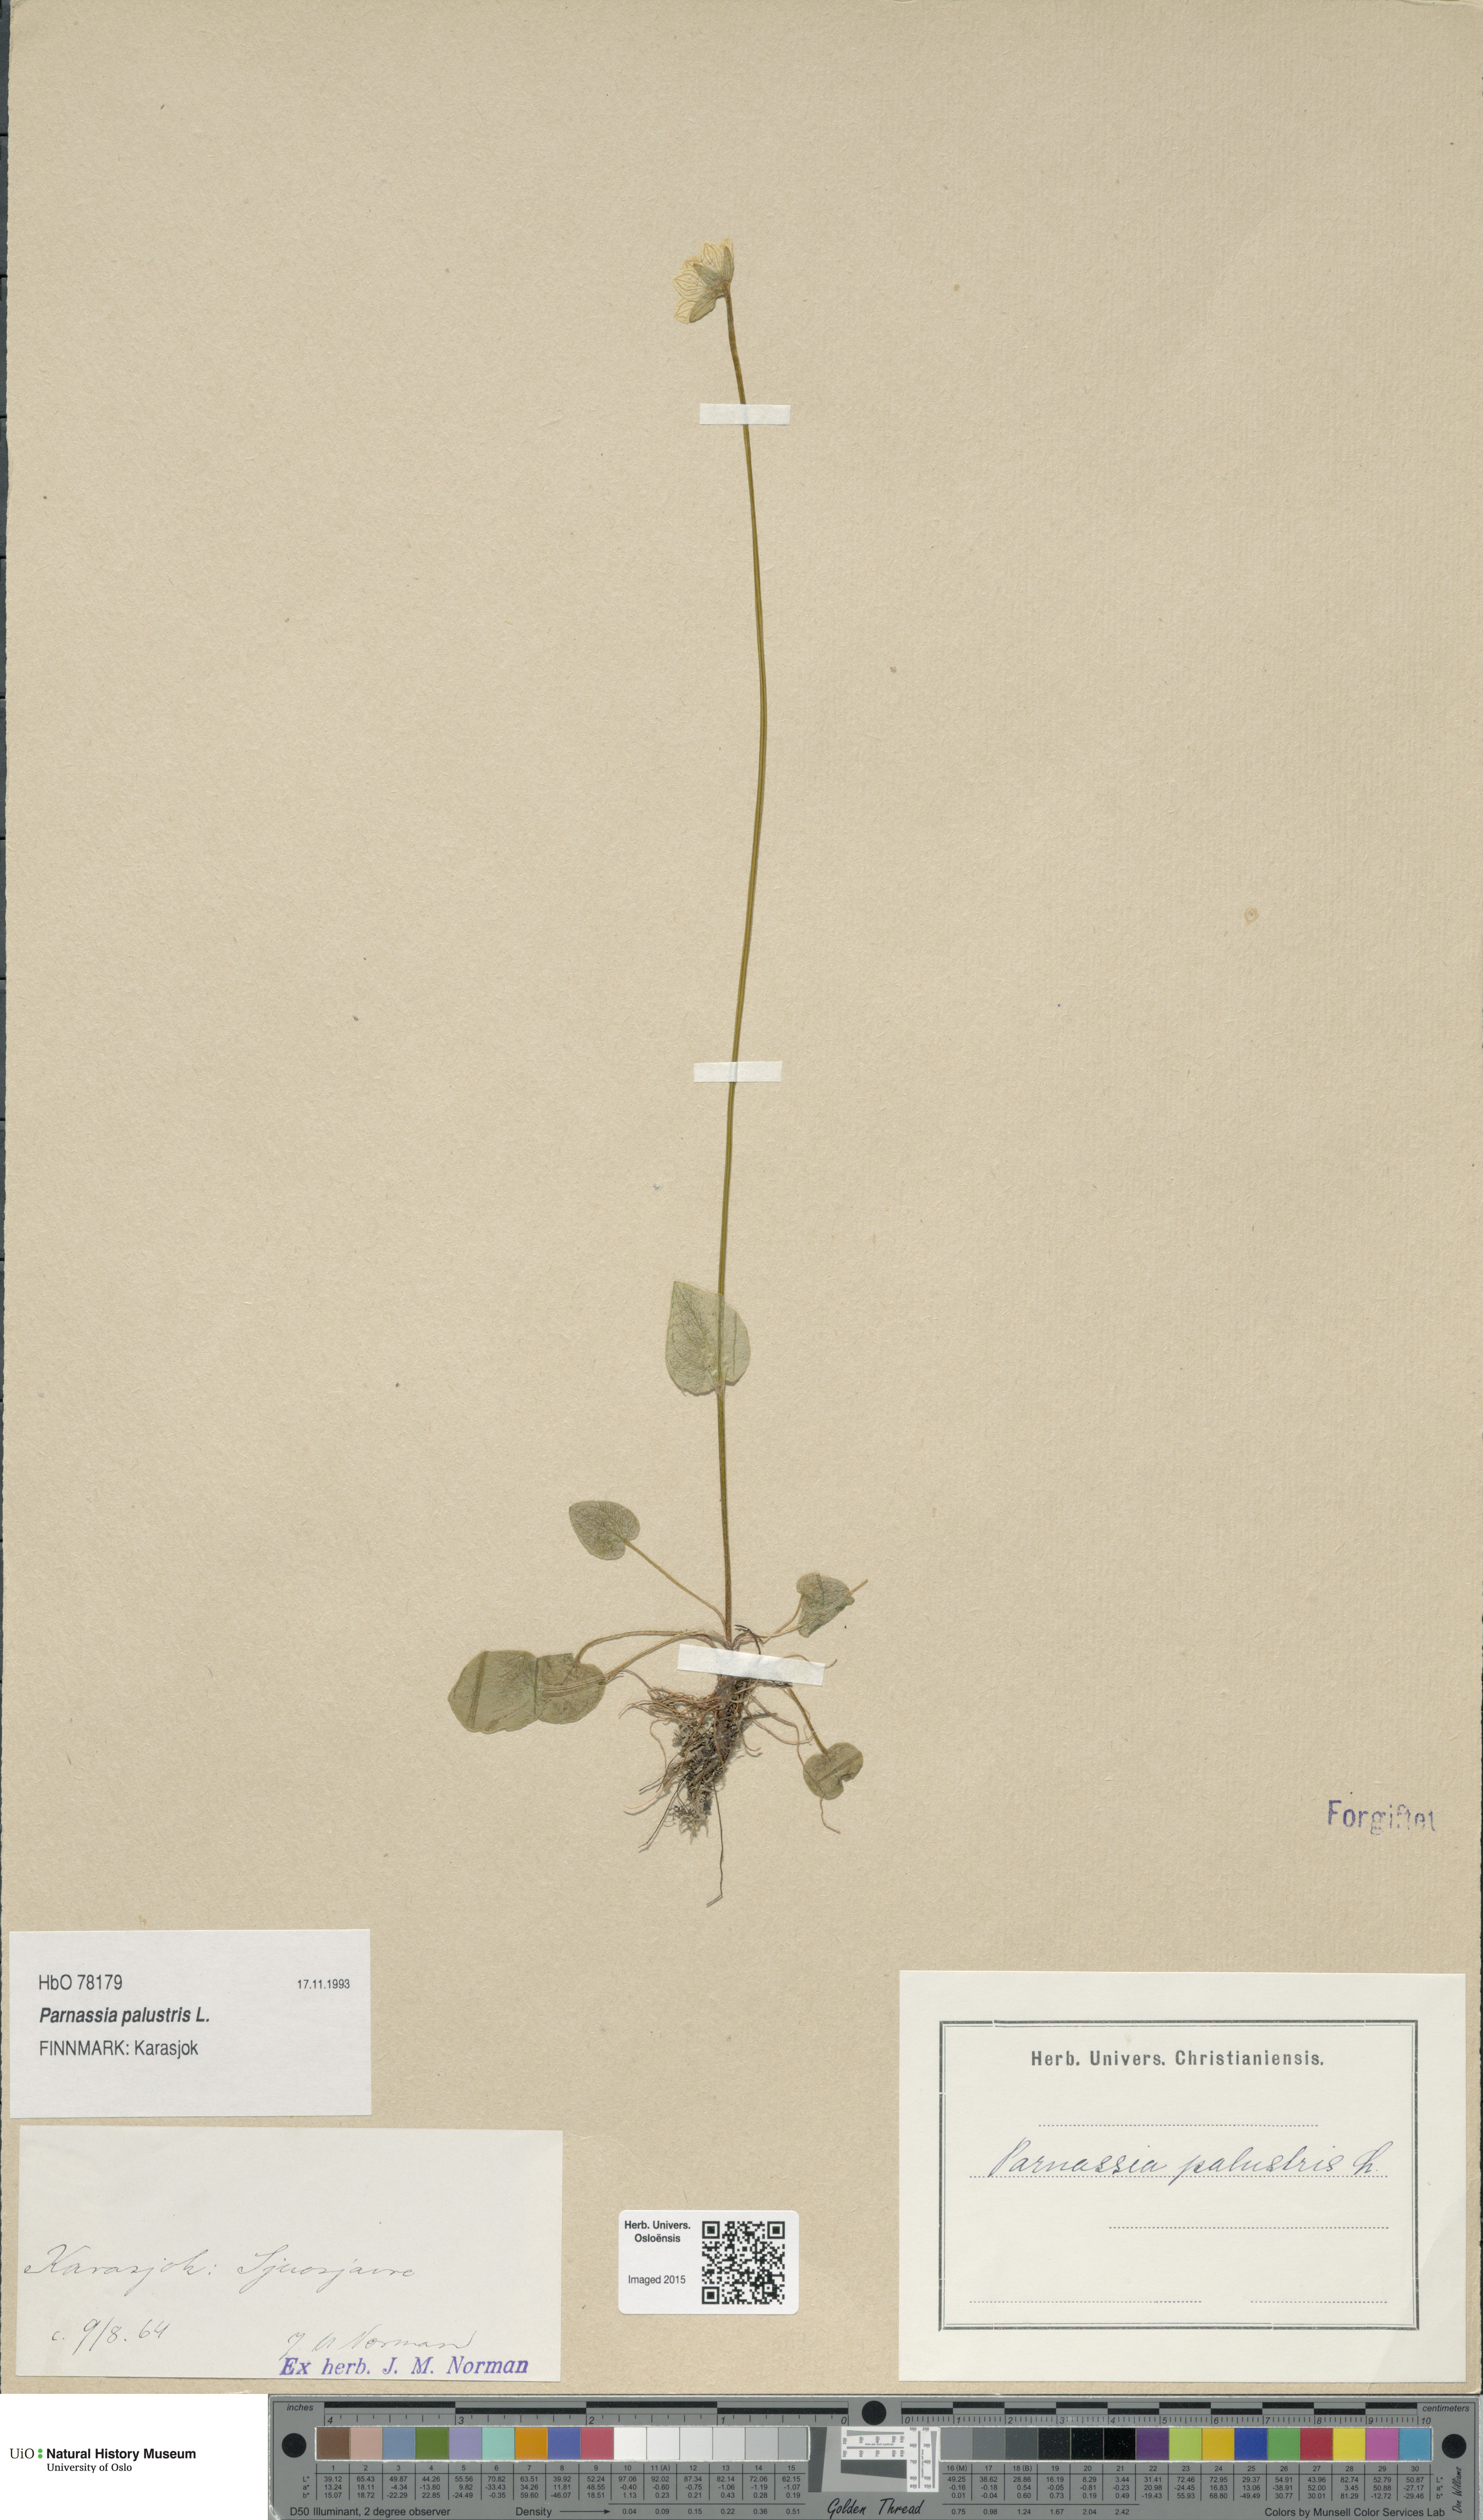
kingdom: Plantae
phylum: Tracheophyta
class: Magnoliopsida
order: Celastrales
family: Parnassiaceae
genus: Parnassia
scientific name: Parnassia palustris
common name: Grass-of-parnassus
